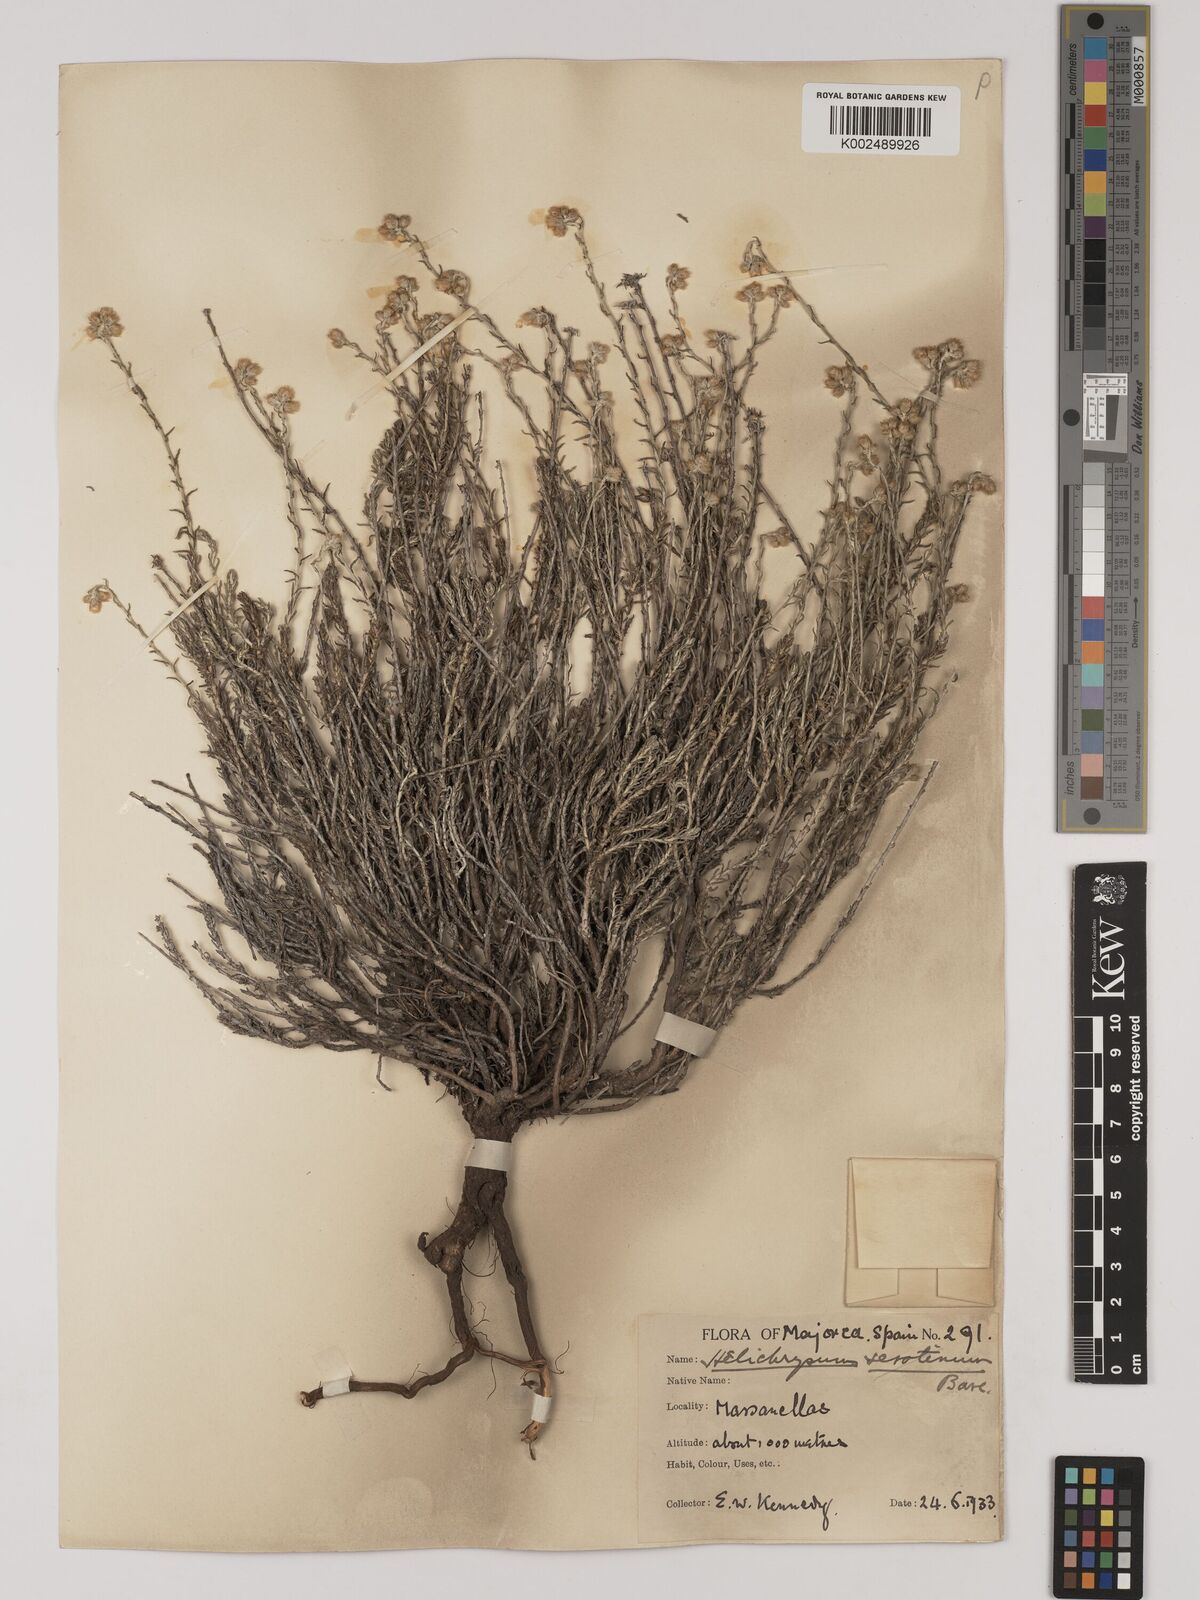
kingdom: Plantae
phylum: Tracheophyta
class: Magnoliopsida
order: Asterales
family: Asteraceae
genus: Helichrysum
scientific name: Helichrysum
